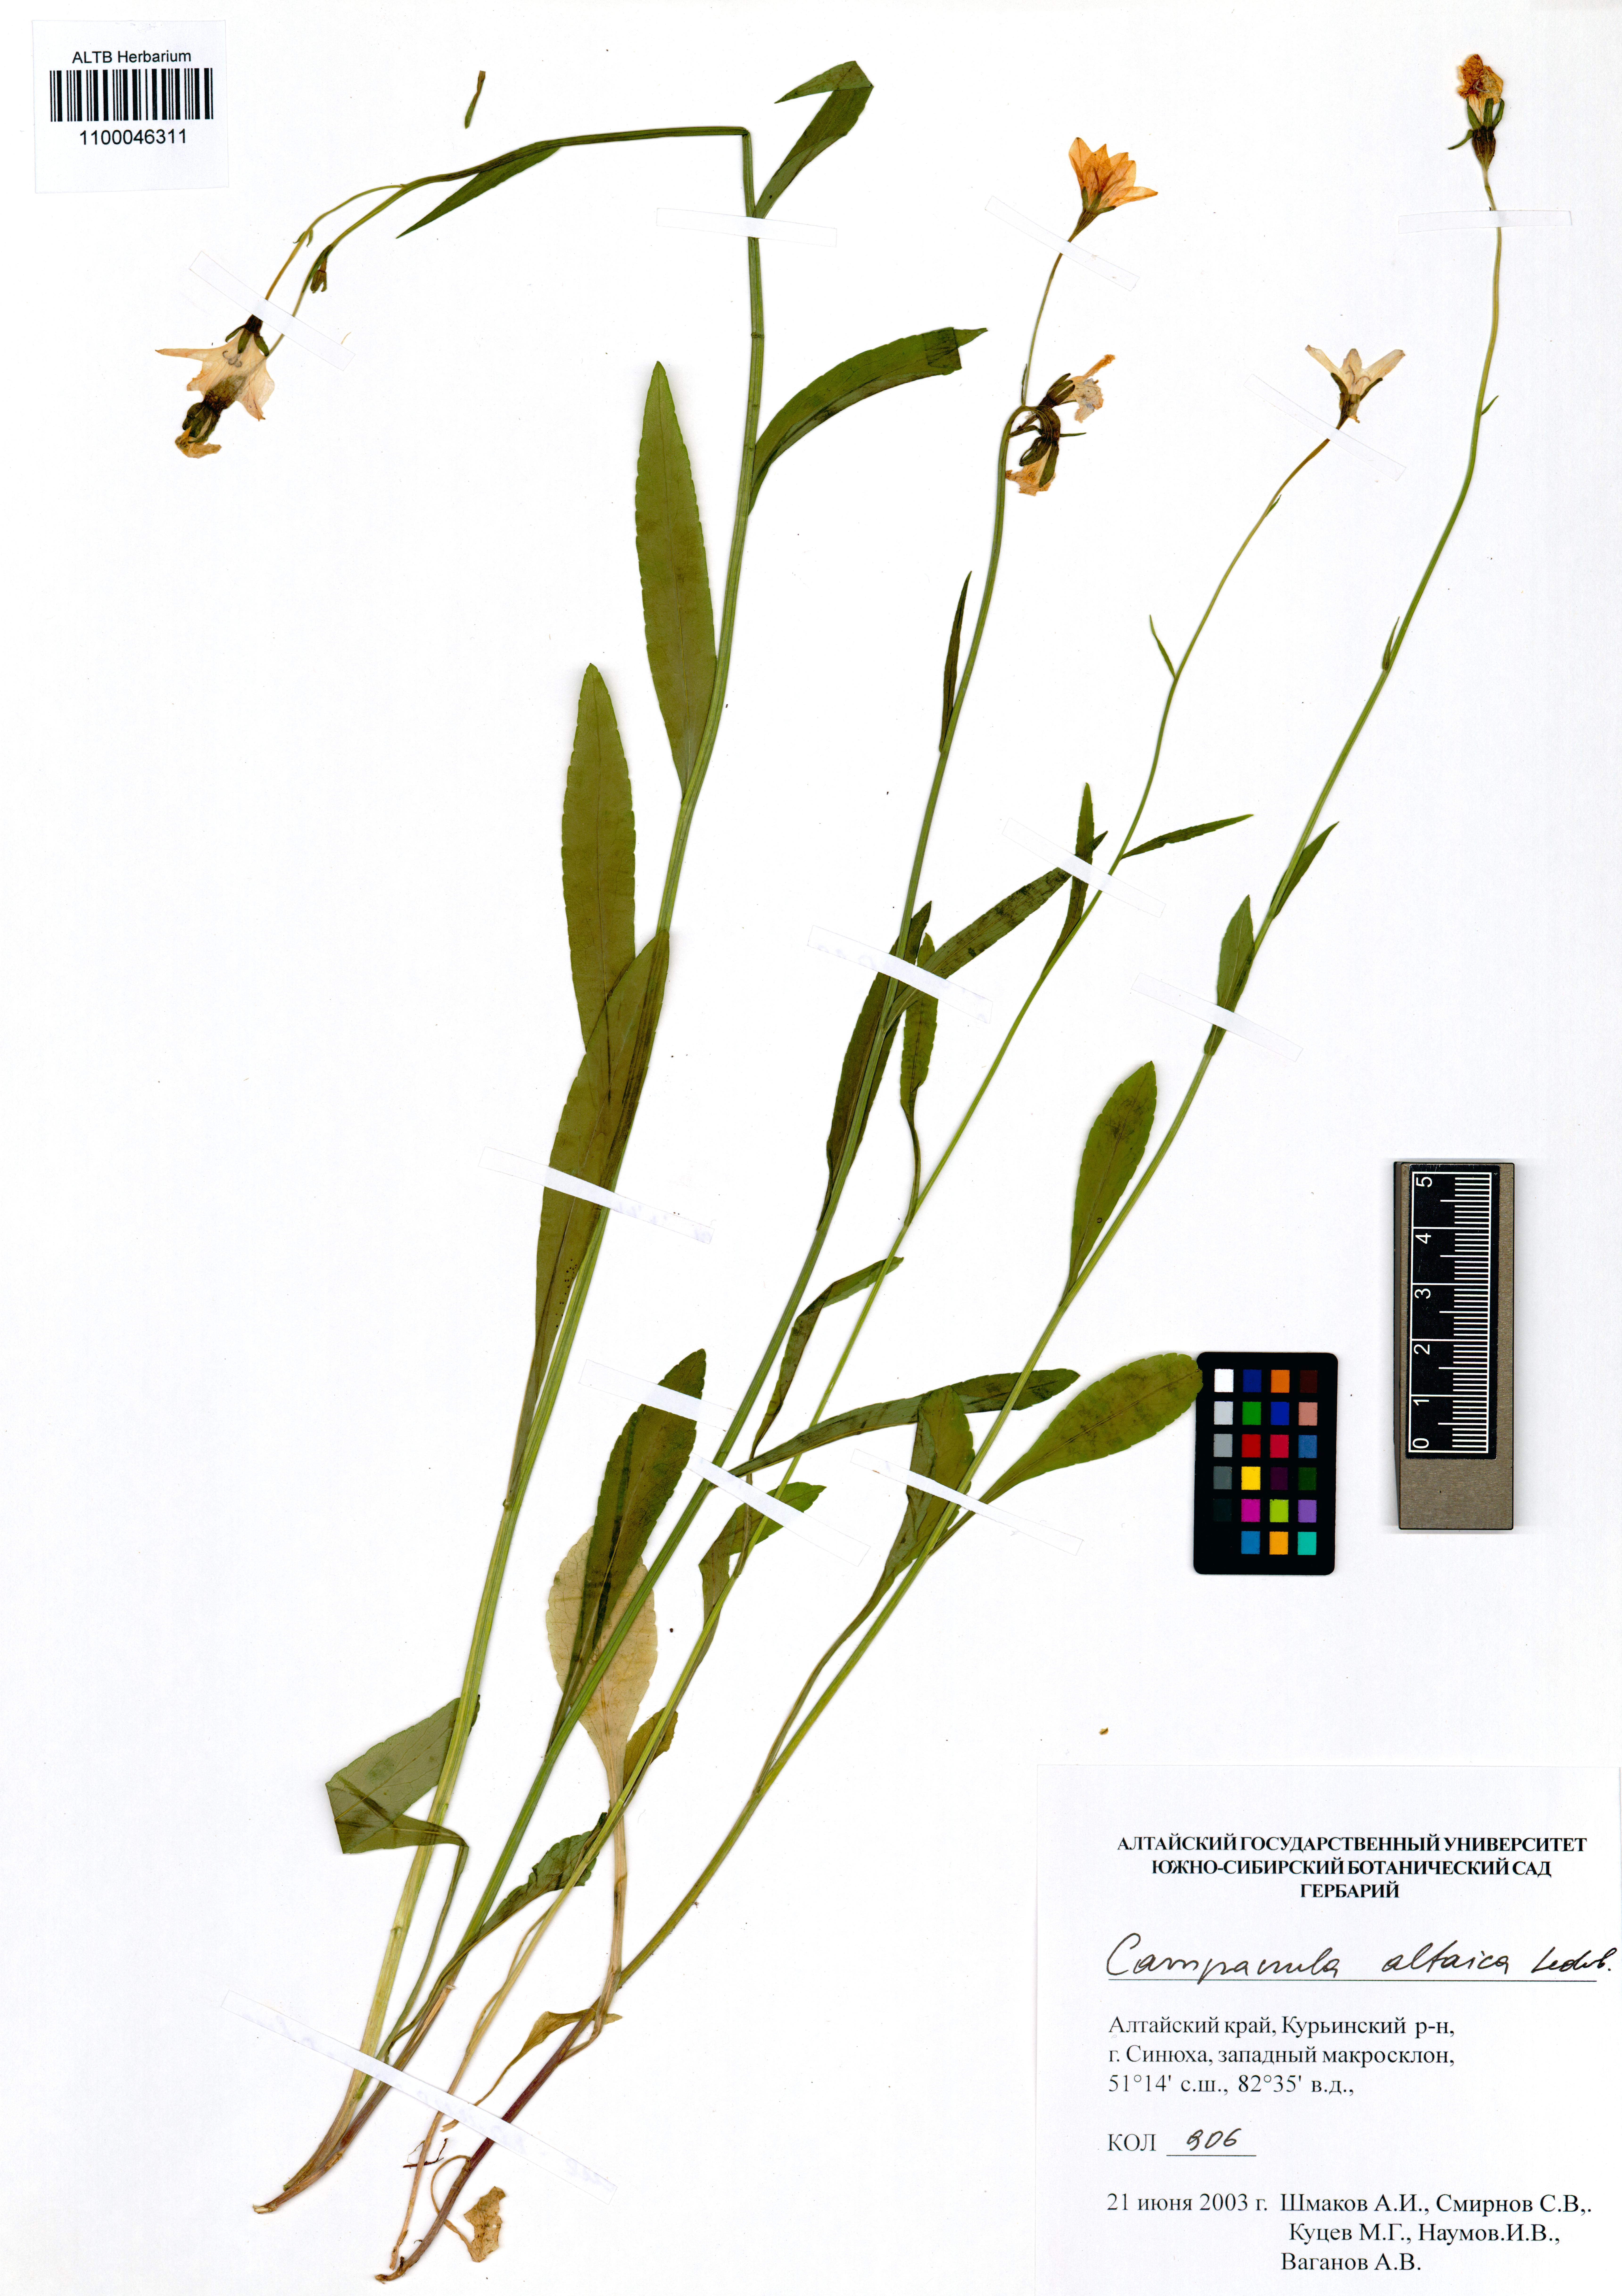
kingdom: Plantae
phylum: Tracheophyta
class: Magnoliopsida
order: Asterales
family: Campanulaceae
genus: Campanula
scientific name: Campanula stevenii
